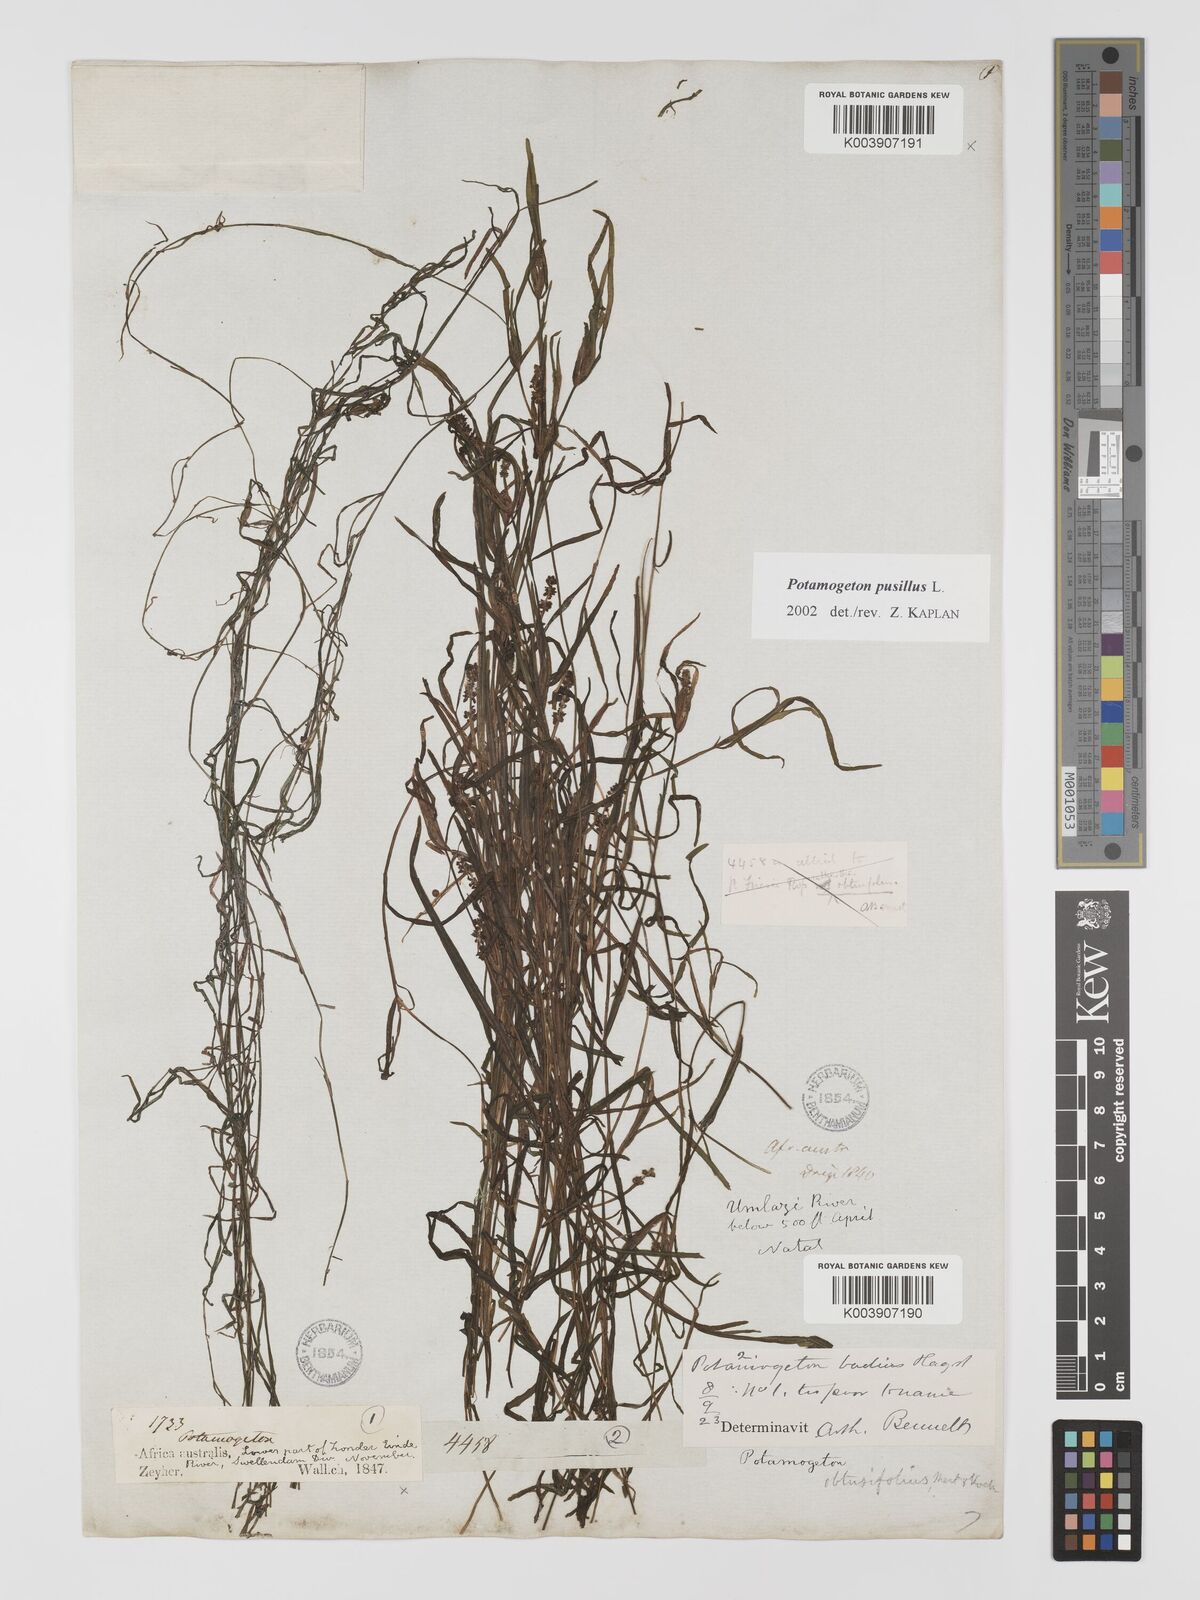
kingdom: Plantae
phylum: Tracheophyta
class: Liliopsida
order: Alismatales
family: Potamogetonaceae
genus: Potamogeton
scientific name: Potamogeton pusillus
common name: Lesser pondweed
